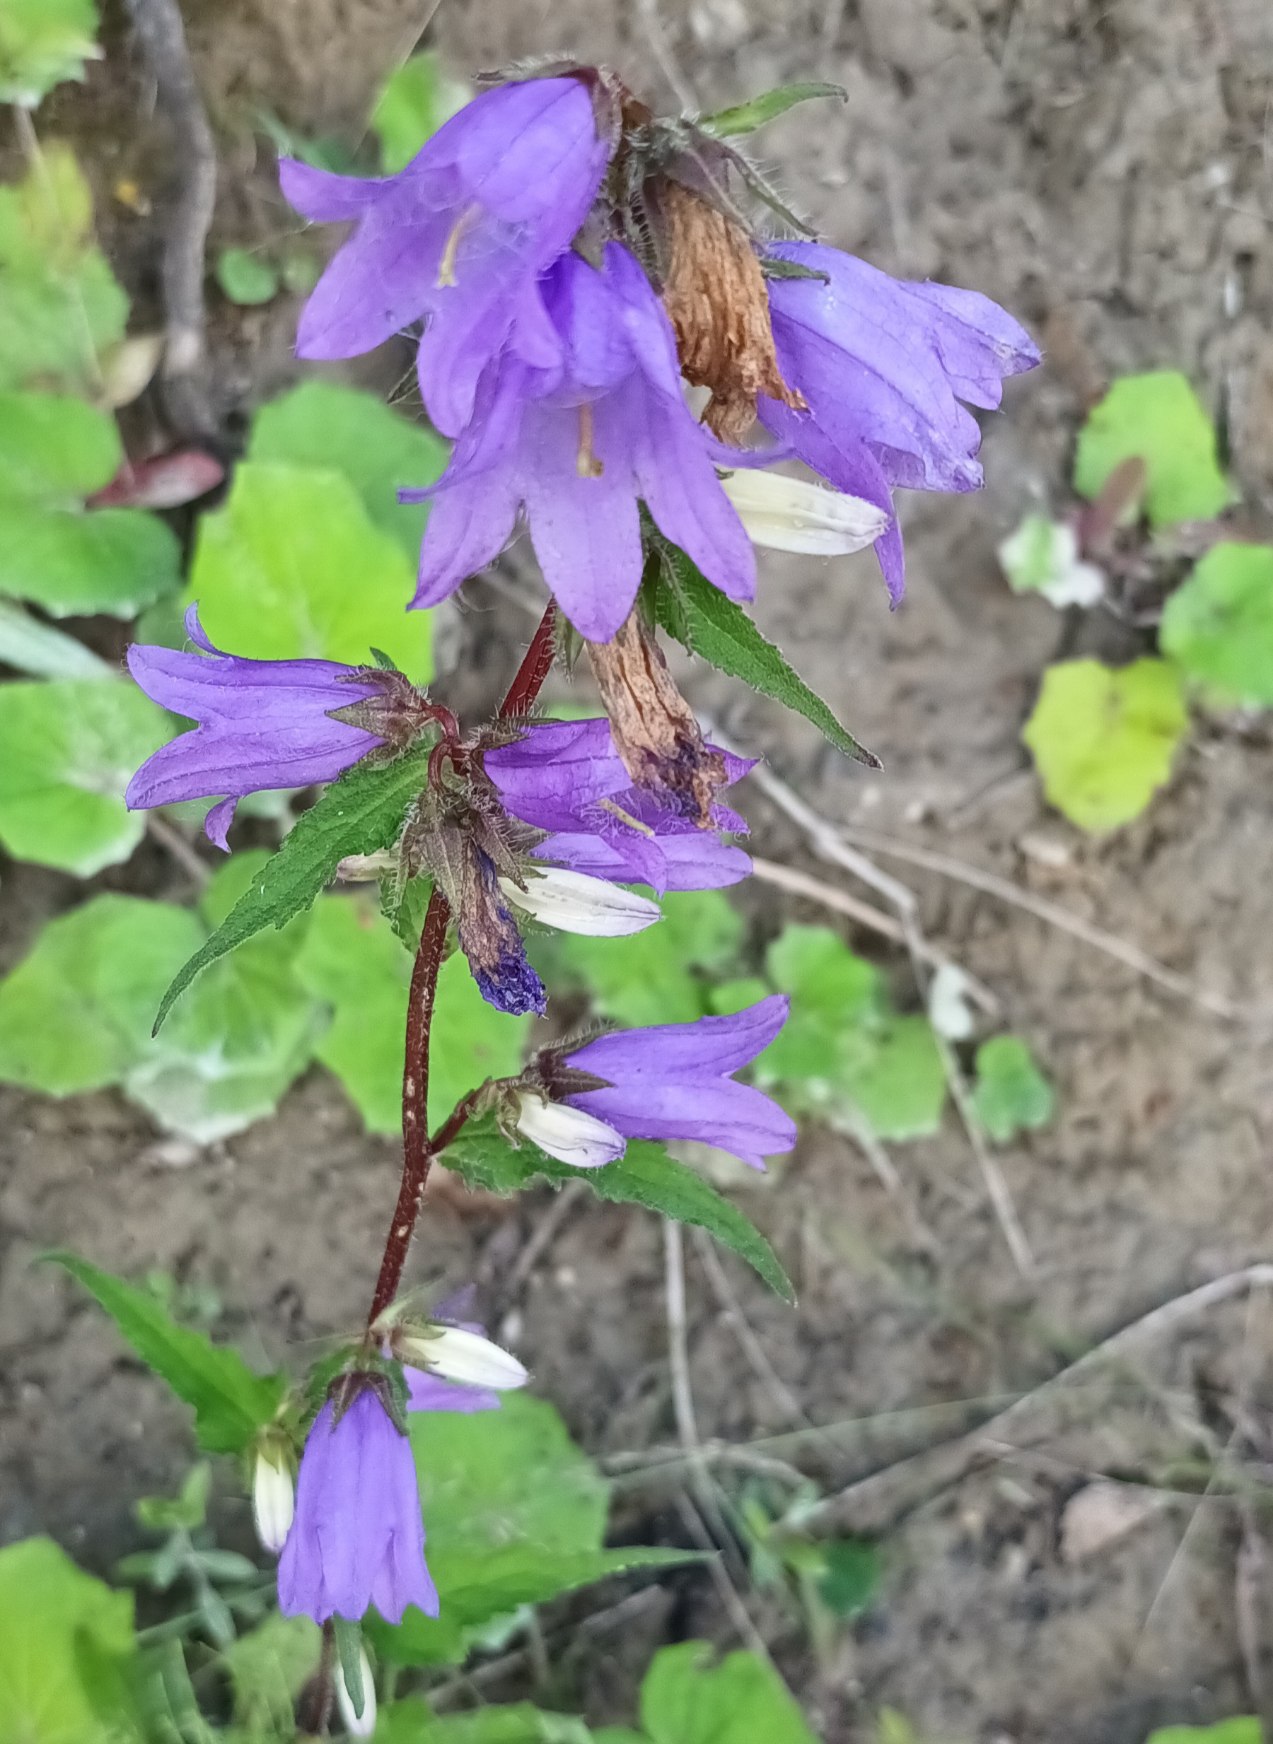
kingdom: Plantae
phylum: Tracheophyta
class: Magnoliopsida
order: Asterales
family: Campanulaceae
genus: Campanula
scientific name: Campanula trachelium
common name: Nælde-klokke
